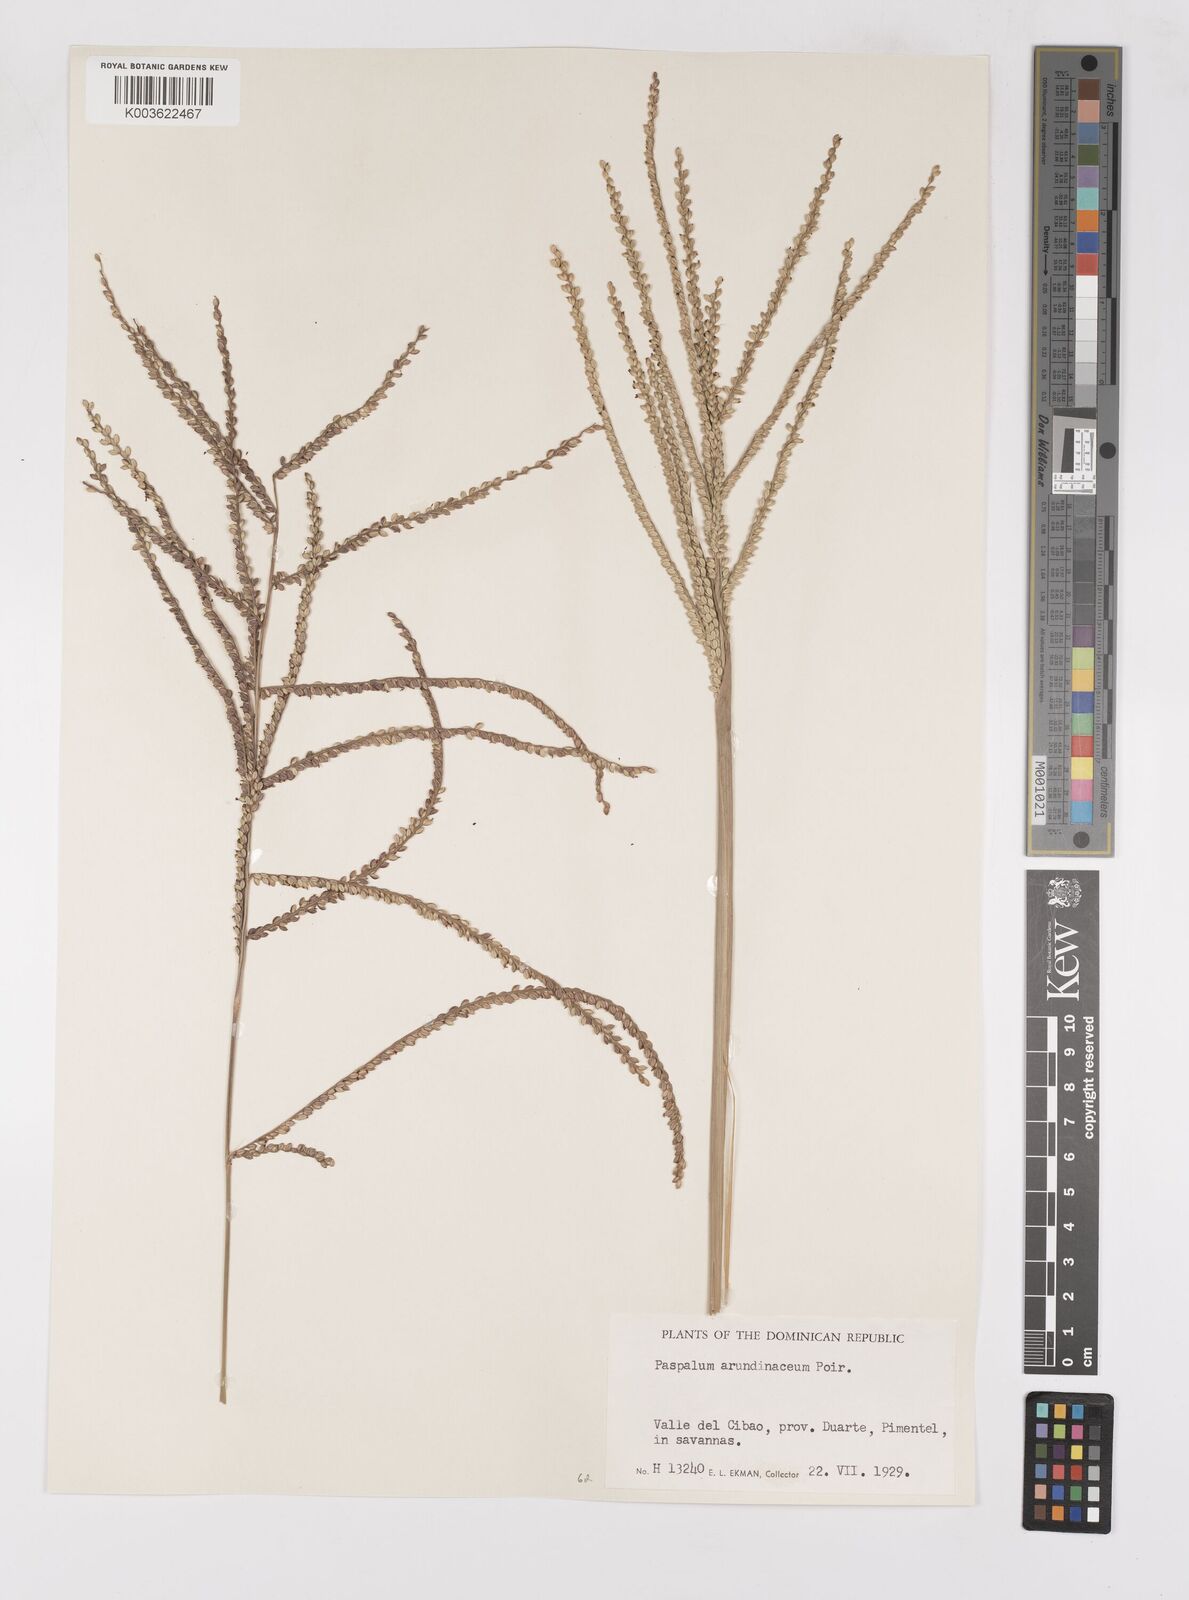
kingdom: Plantae
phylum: Tracheophyta
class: Liliopsida
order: Poales
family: Poaceae
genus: Paspalum
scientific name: Paspalum arundinaceum
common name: Thick ditch crowngrass
